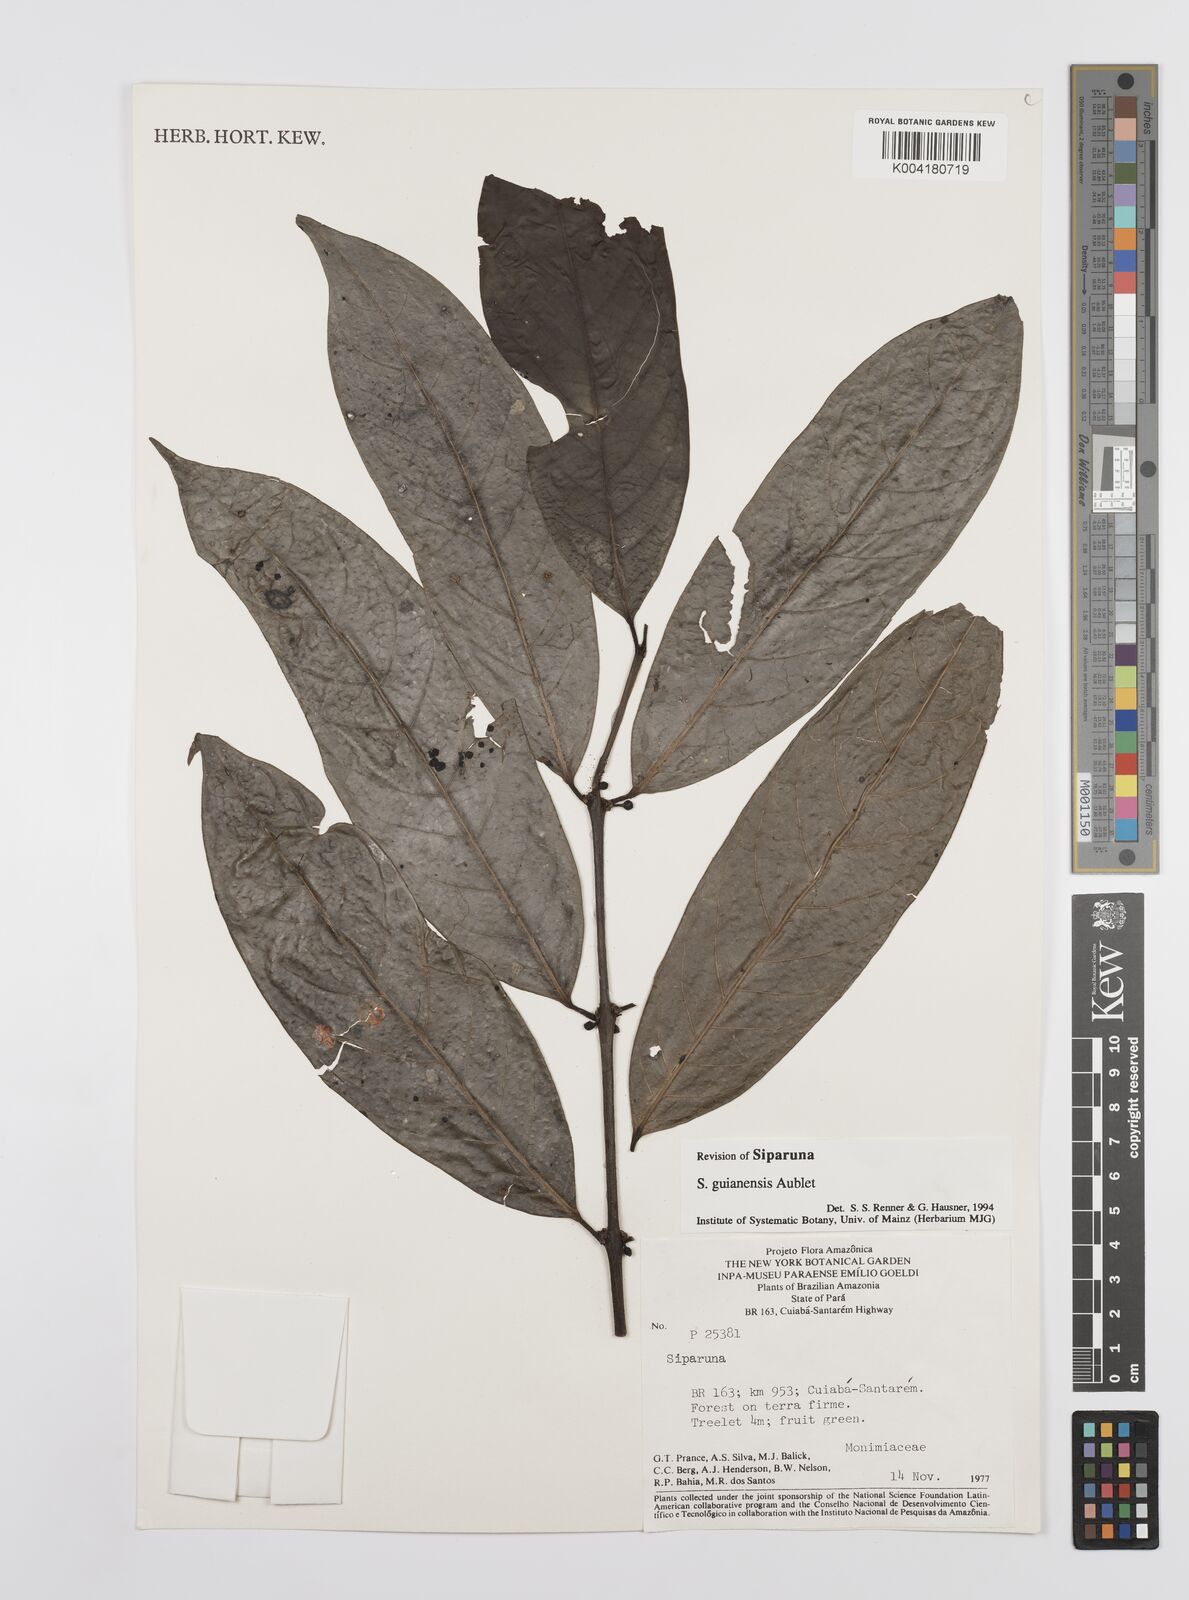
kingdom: Plantae
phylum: Tracheophyta
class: Magnoliopsida
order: Laurales
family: Siparunaceae
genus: Siparuna
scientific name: Siparuna guianensis
